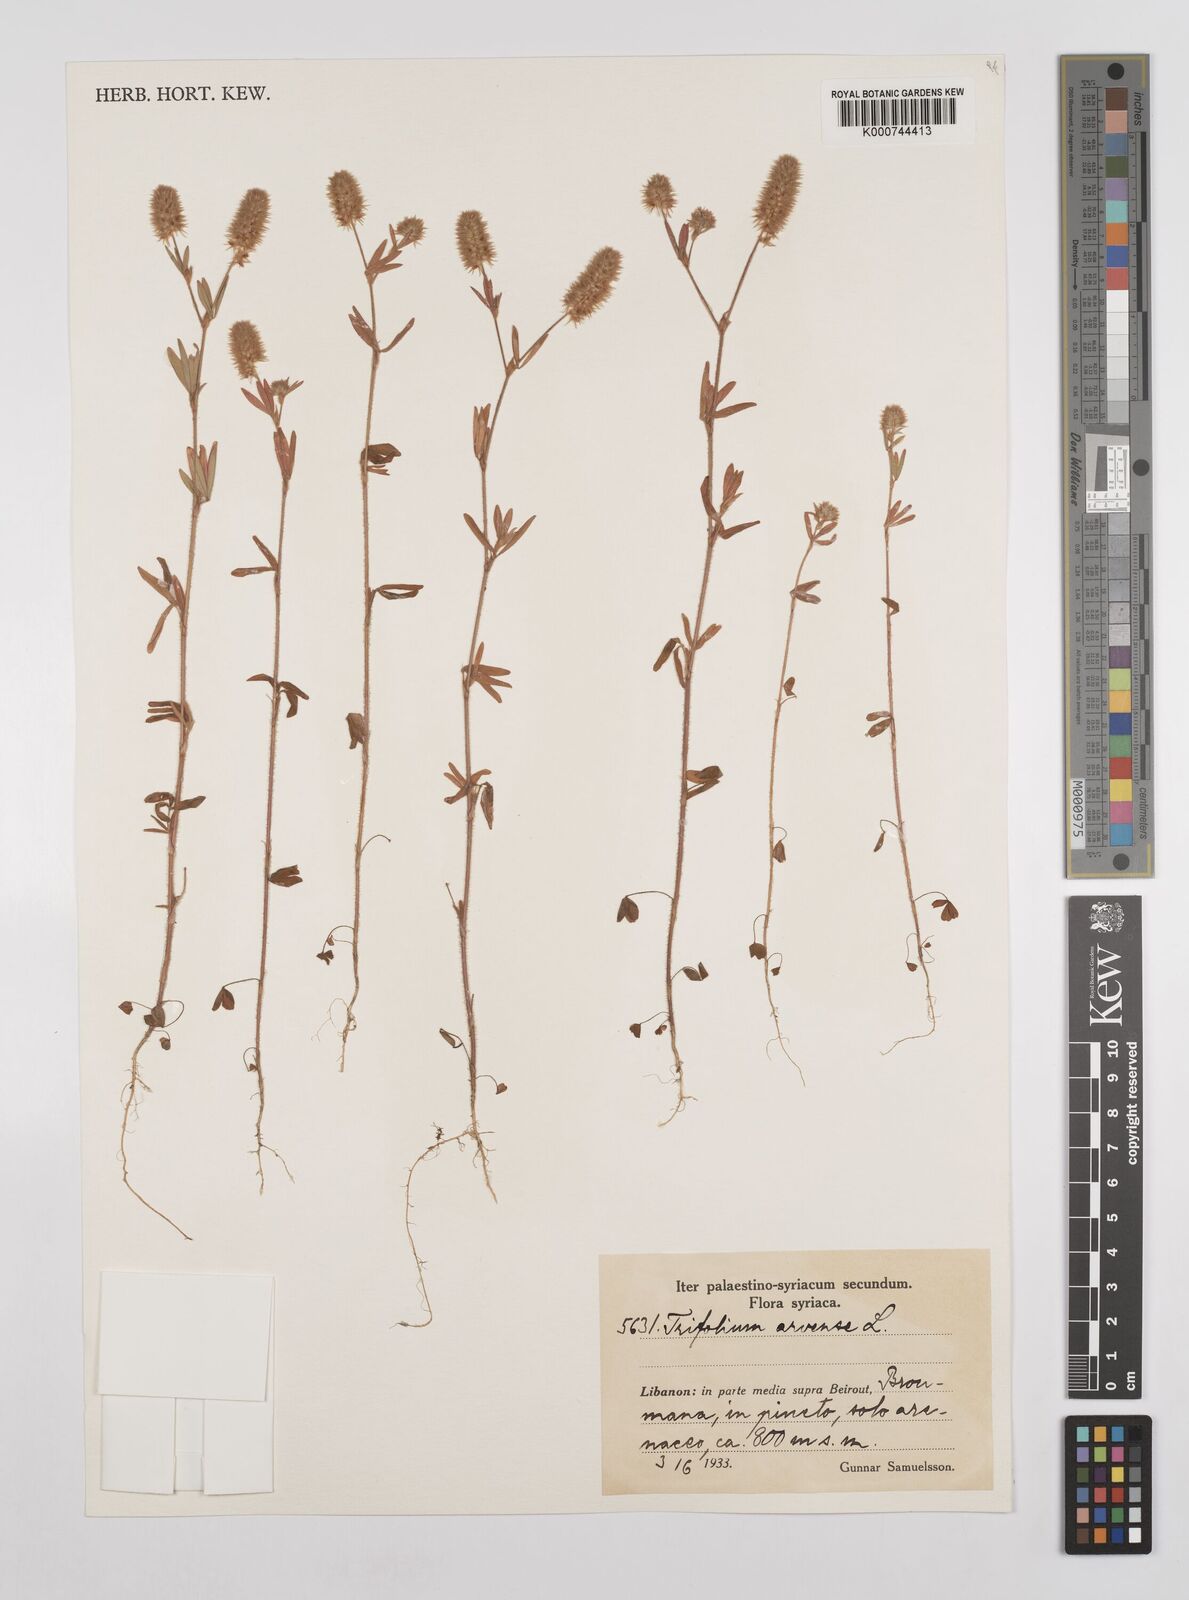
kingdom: Plantae
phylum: Tracheophyta
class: Magnoliopsida
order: Fabales
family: Fabaceae
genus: Trifolium
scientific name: Trifolium arvense
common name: Hare's-foot clover
